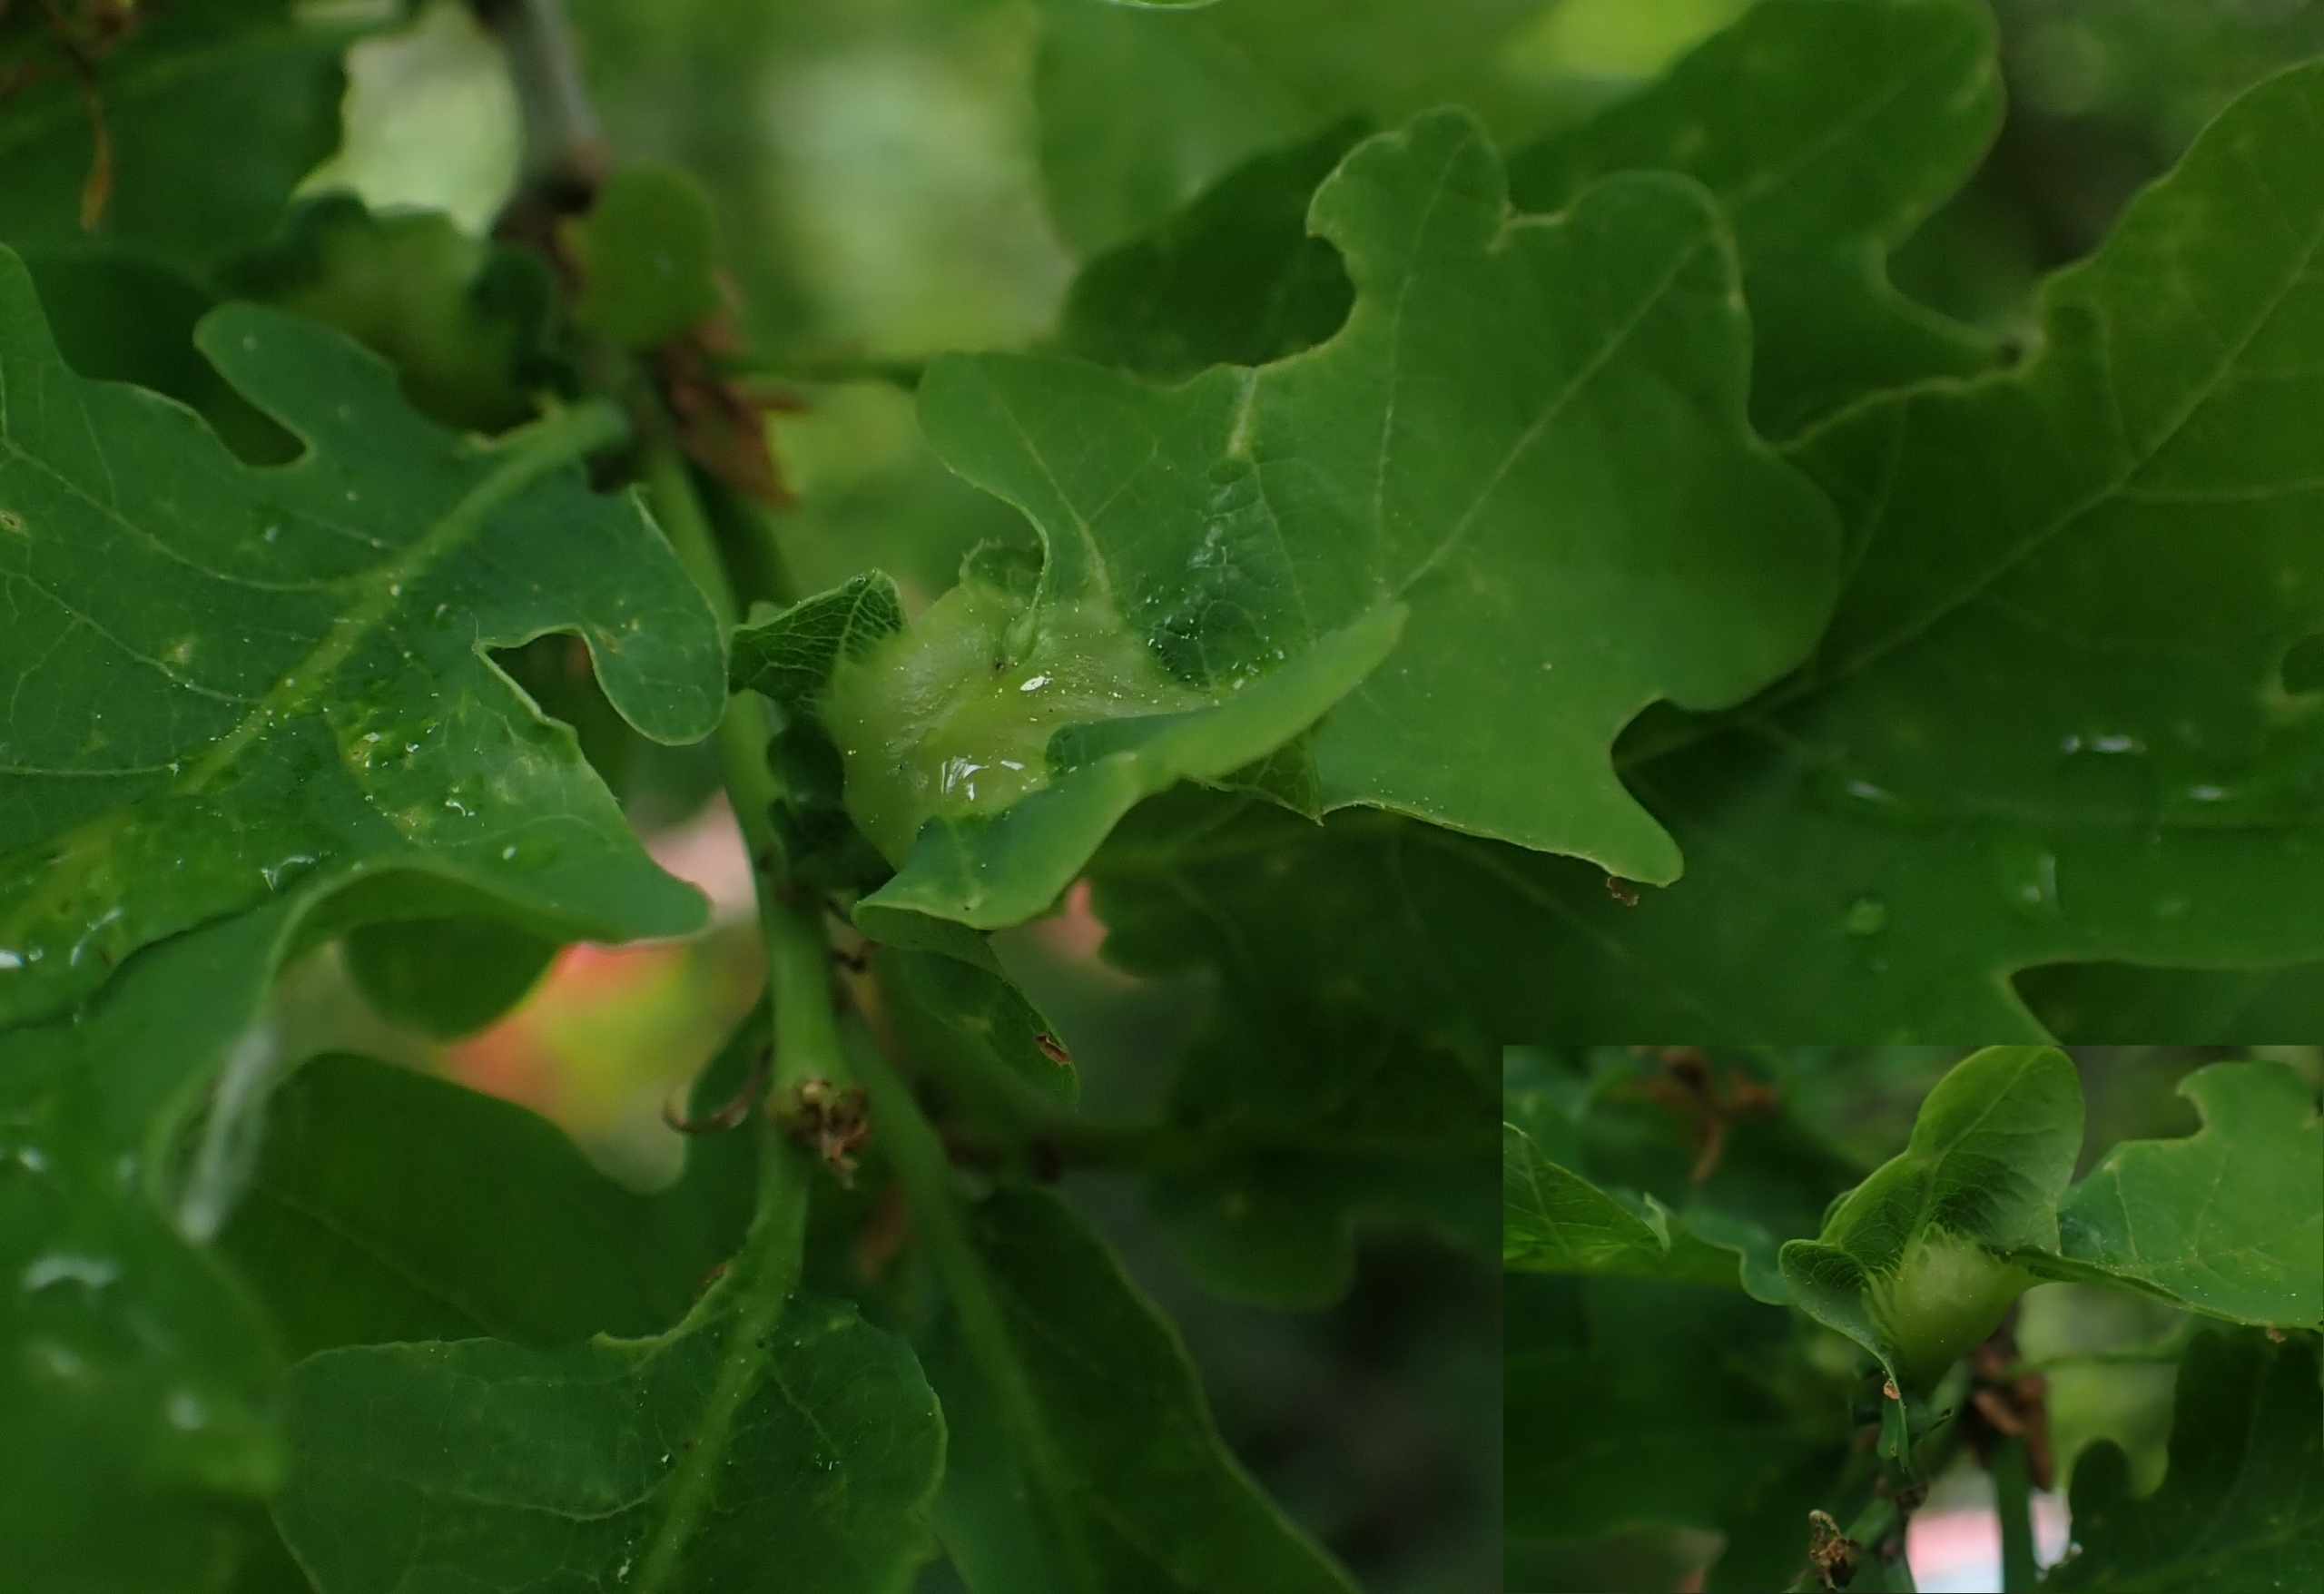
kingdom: Animalia
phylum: Arthropoda
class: Insecta
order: Hymenoptera
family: Cynipidae
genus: Andricus
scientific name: Andricus curvator
